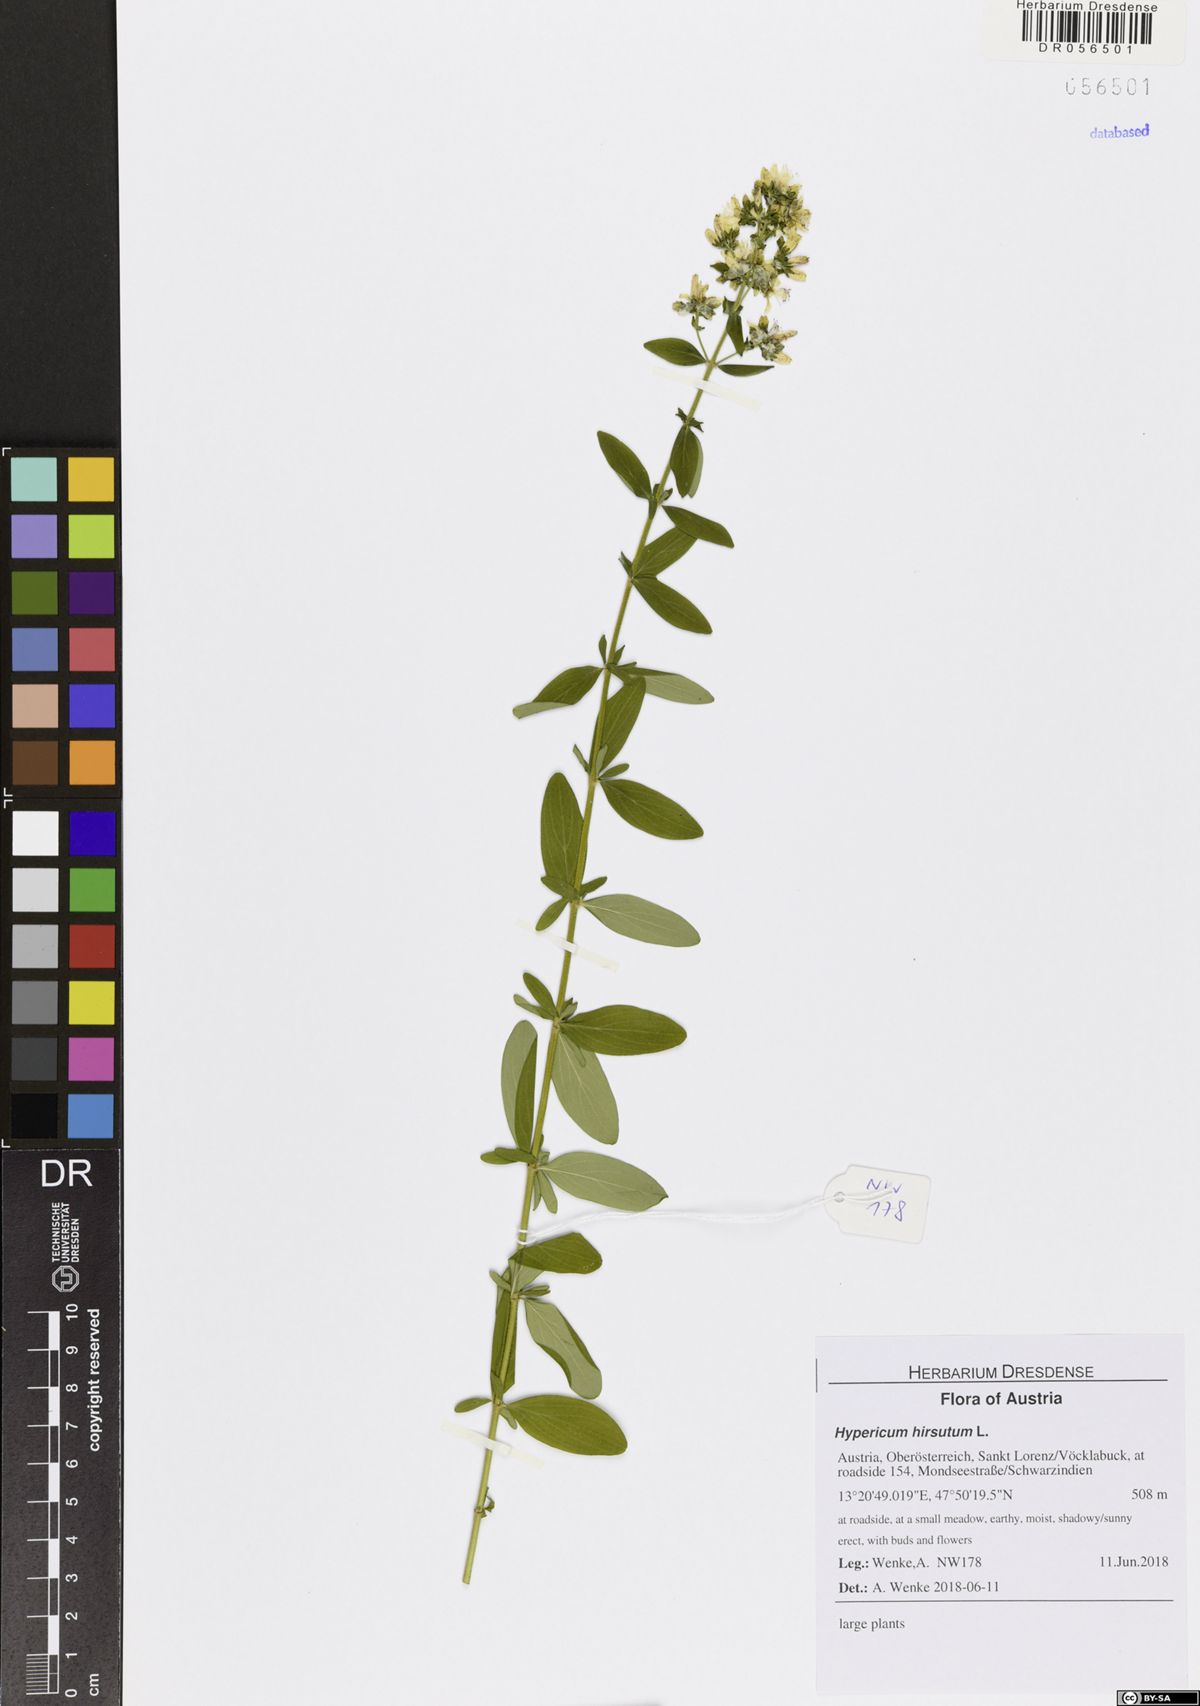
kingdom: Plantae
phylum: Tracheophyta
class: Magnoliopsida
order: Malpighiales
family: Hypericaceae
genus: Hypericum
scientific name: Hypericum hirsutum
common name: Hairy st. john's-wort
